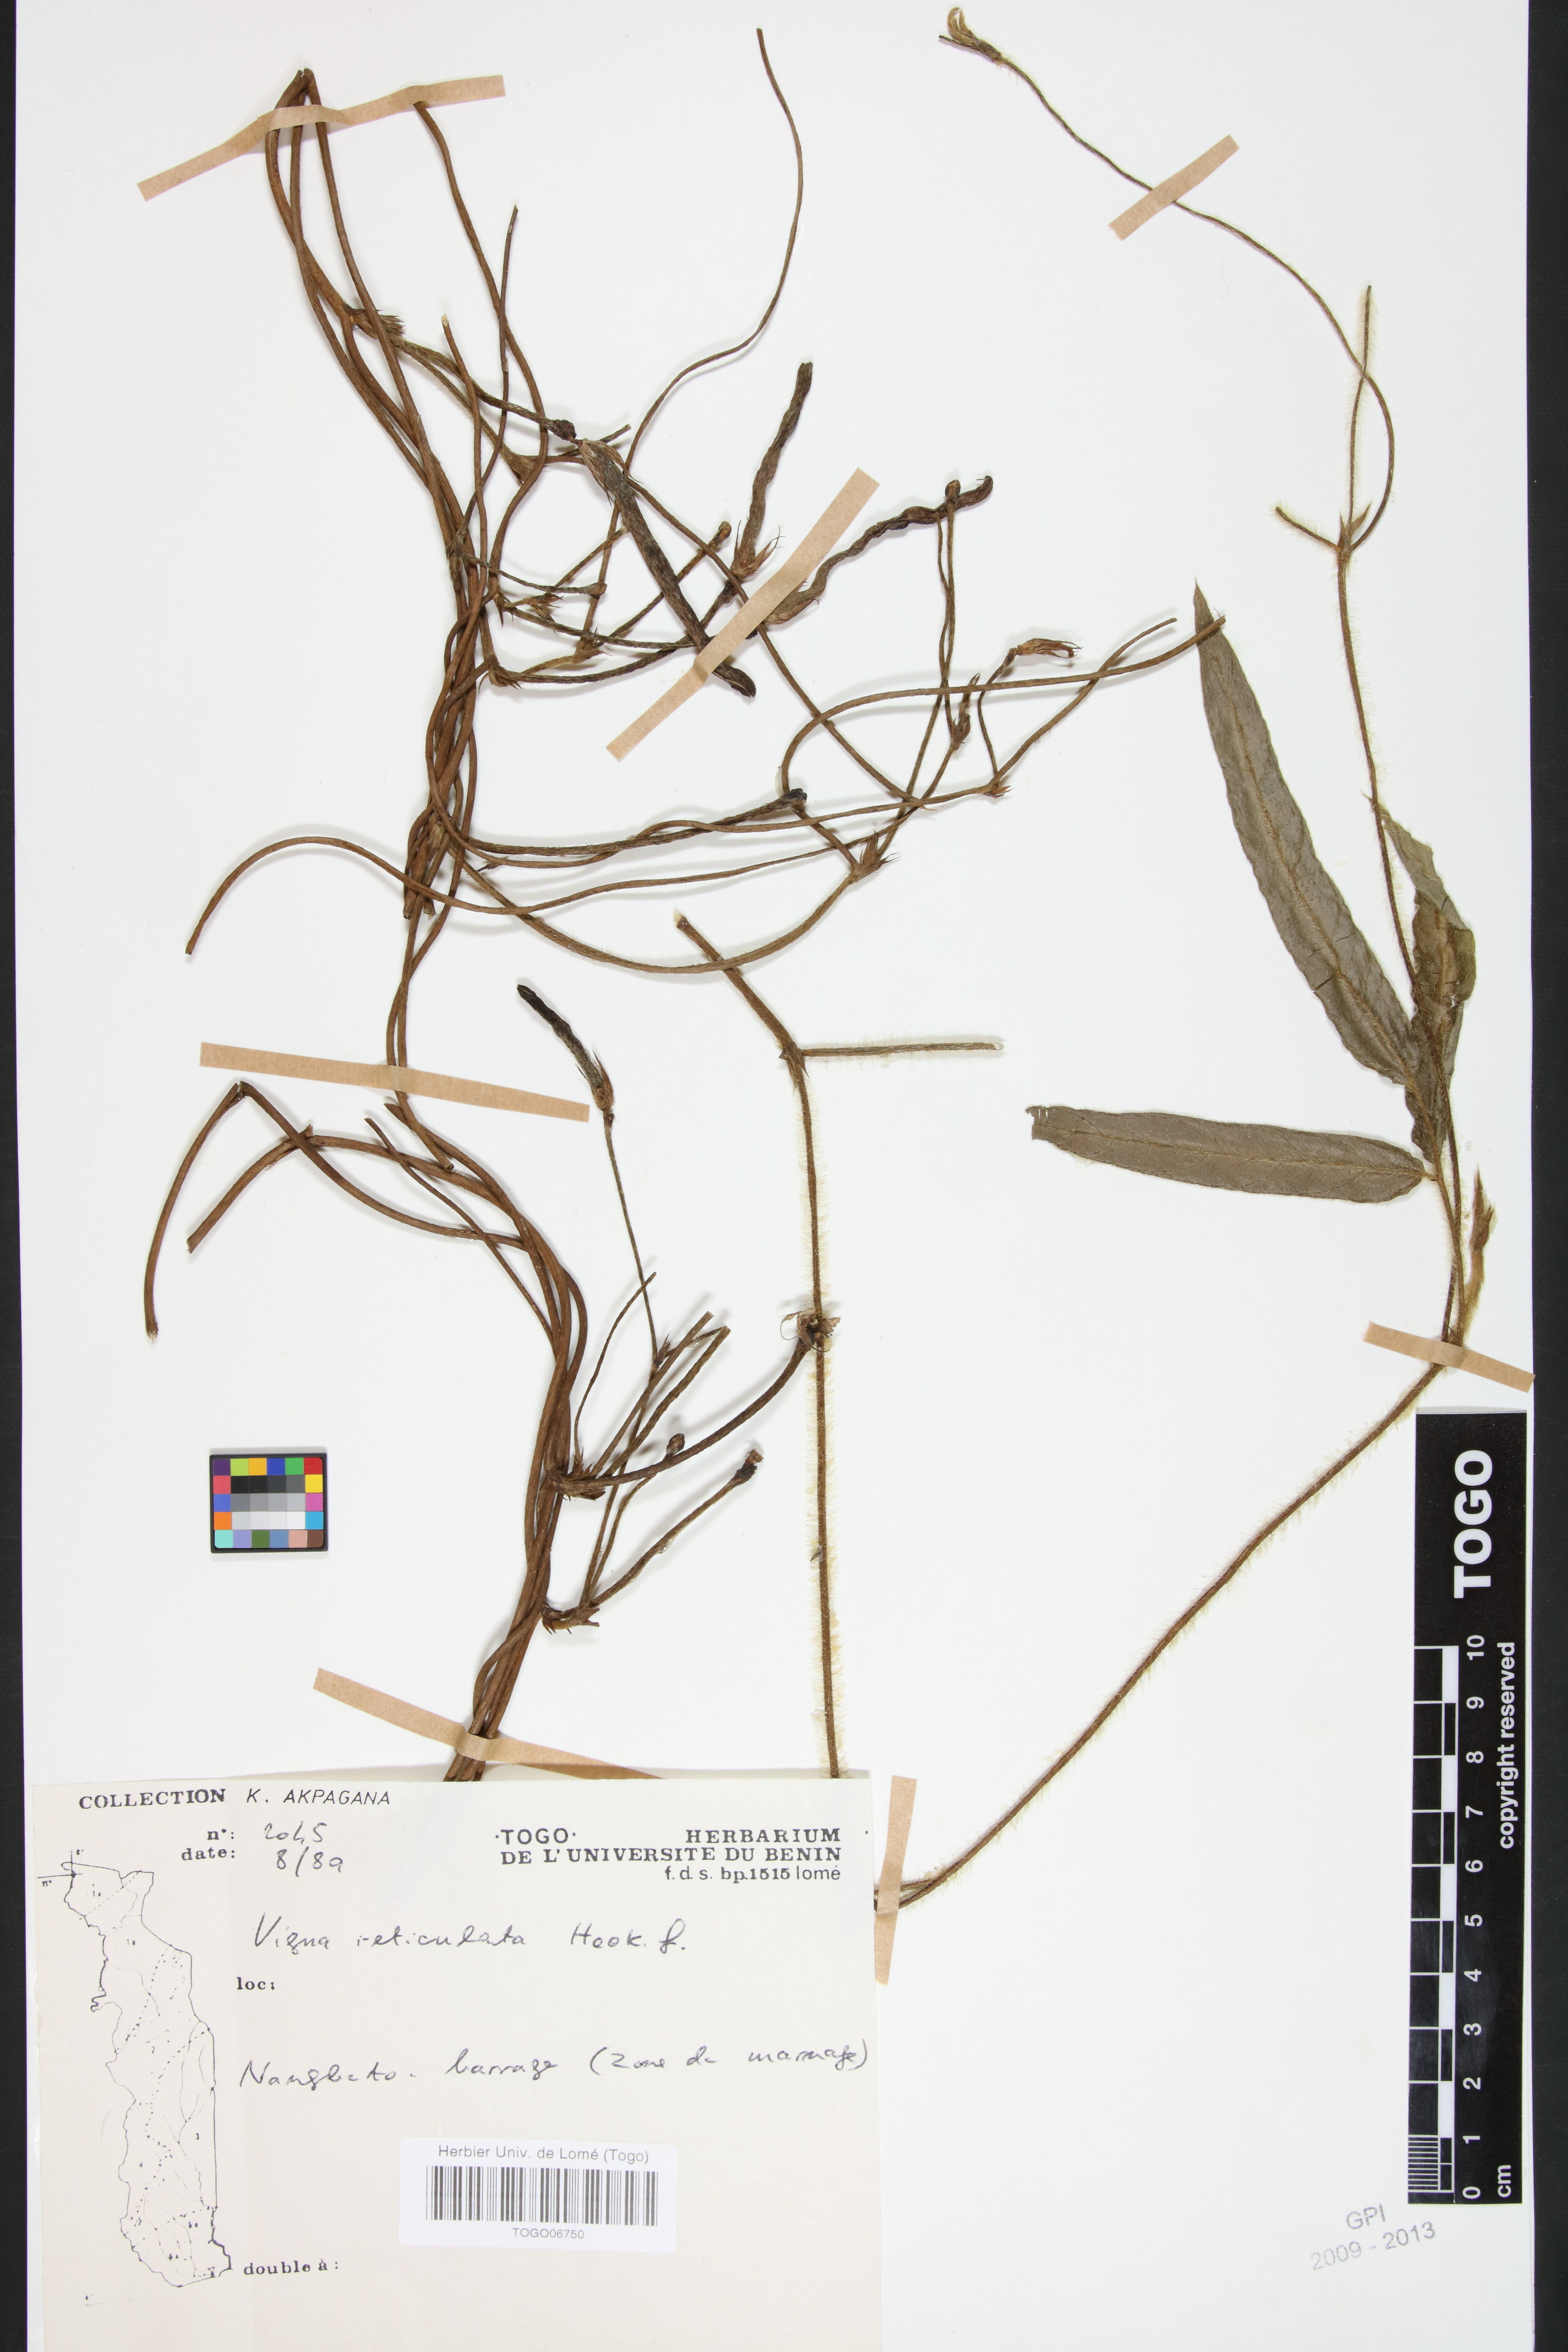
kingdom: Plantae
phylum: Tracheophyta
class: Magnoliopsida
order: Fabales
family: Fabaceae
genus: Vigna
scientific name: Vigna reticulata
